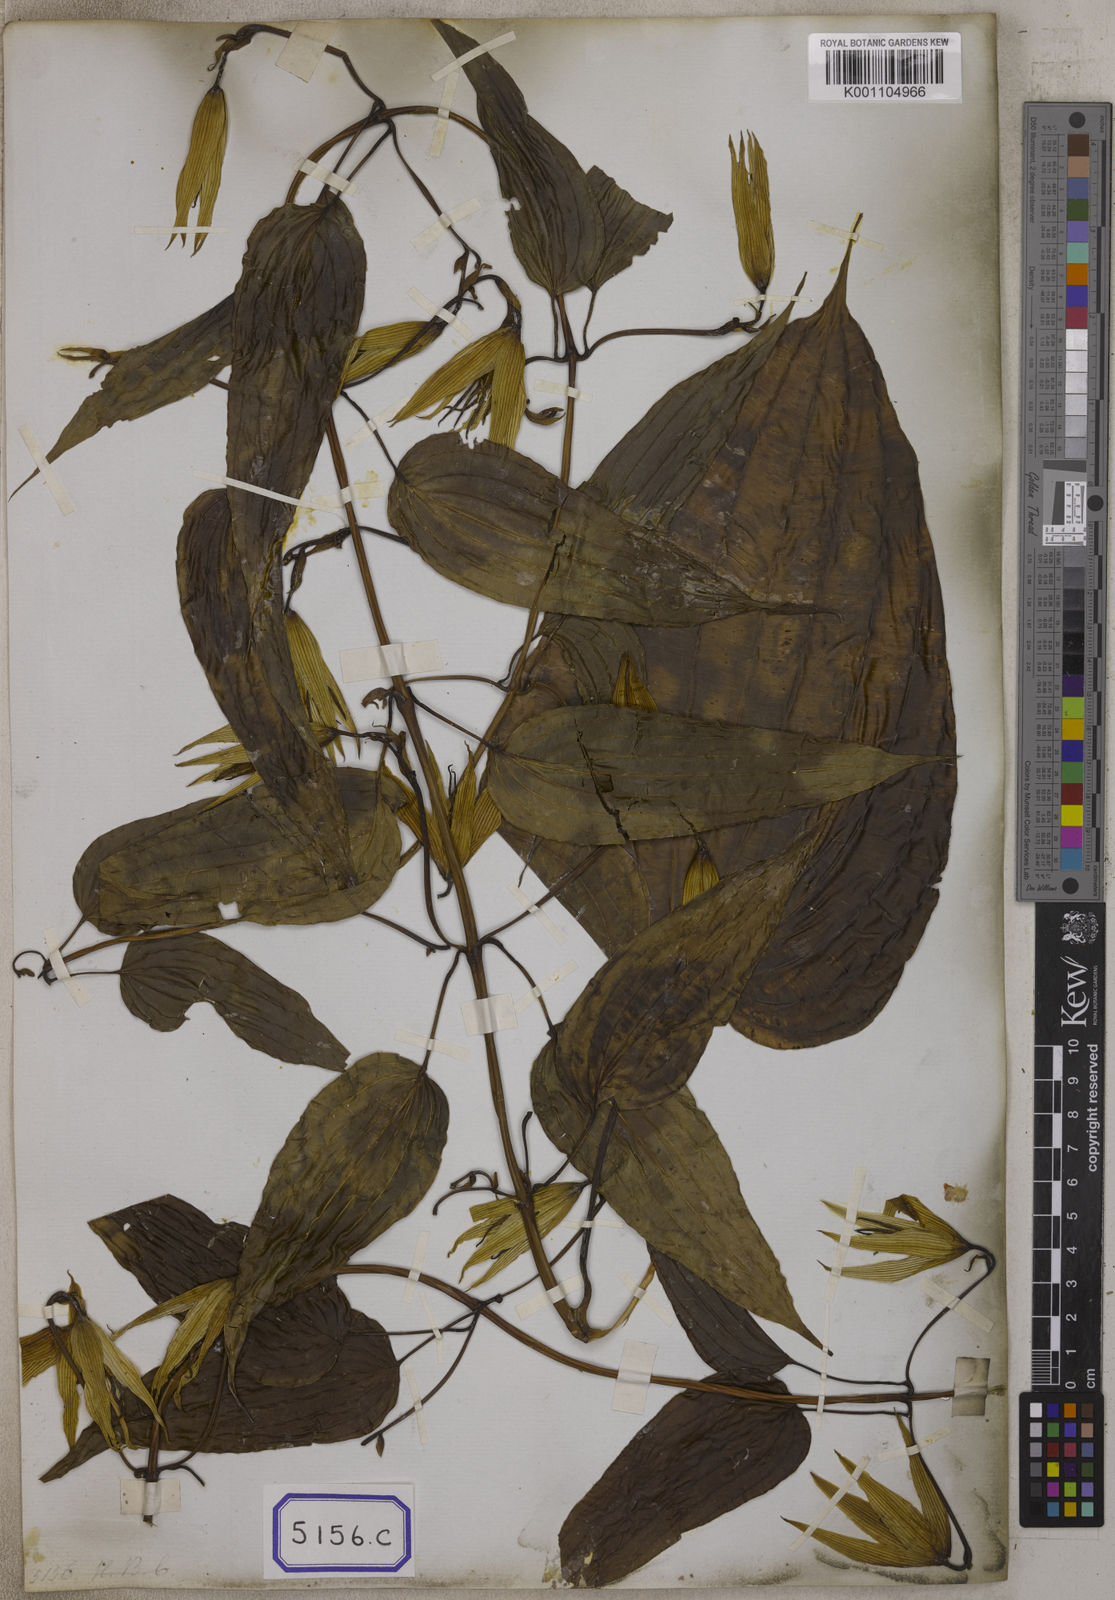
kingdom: Plantae
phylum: Tracheophyta
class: Liliopsida
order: Pandanales
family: Stemonaceae
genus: Stemona
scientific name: Stemona tuberosa
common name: Stemona
